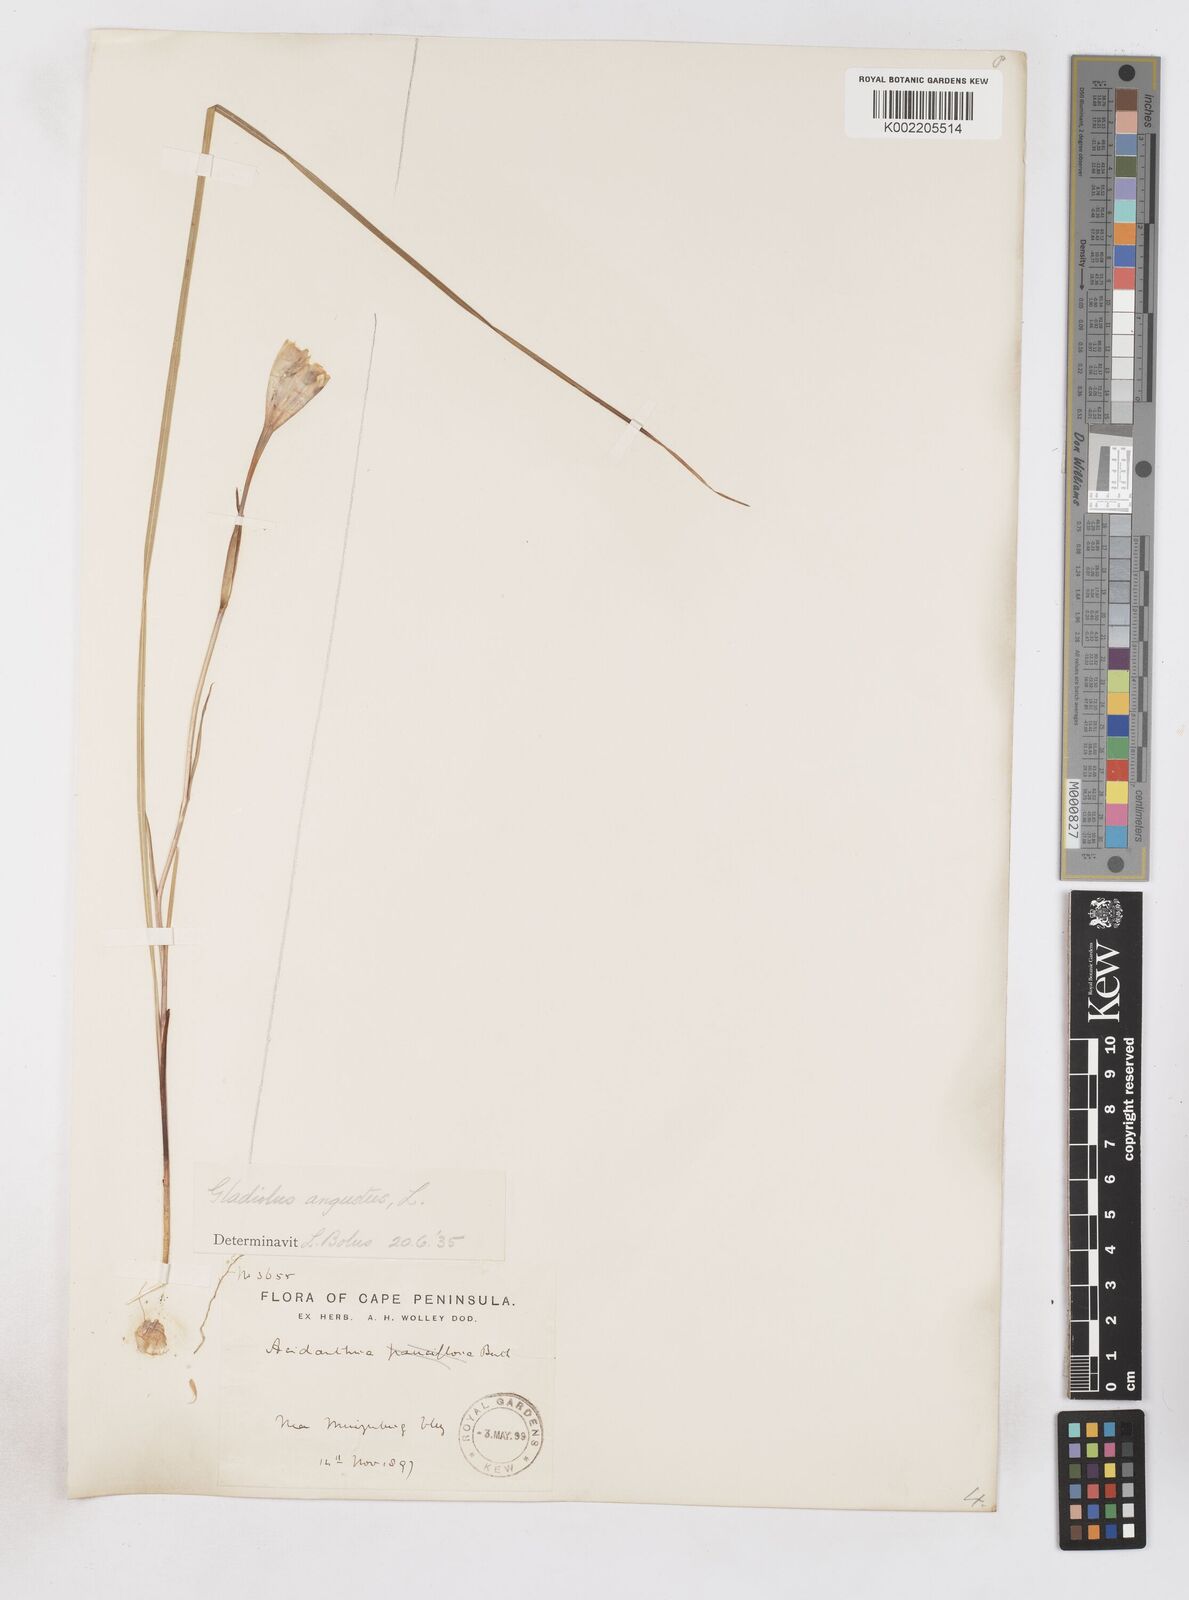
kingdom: Plantae
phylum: Tracheophyta
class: Liliopsida
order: Asparagales
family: Iridaceae
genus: Gladiolus
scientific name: Gladiolus angustus
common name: Painted-lady
